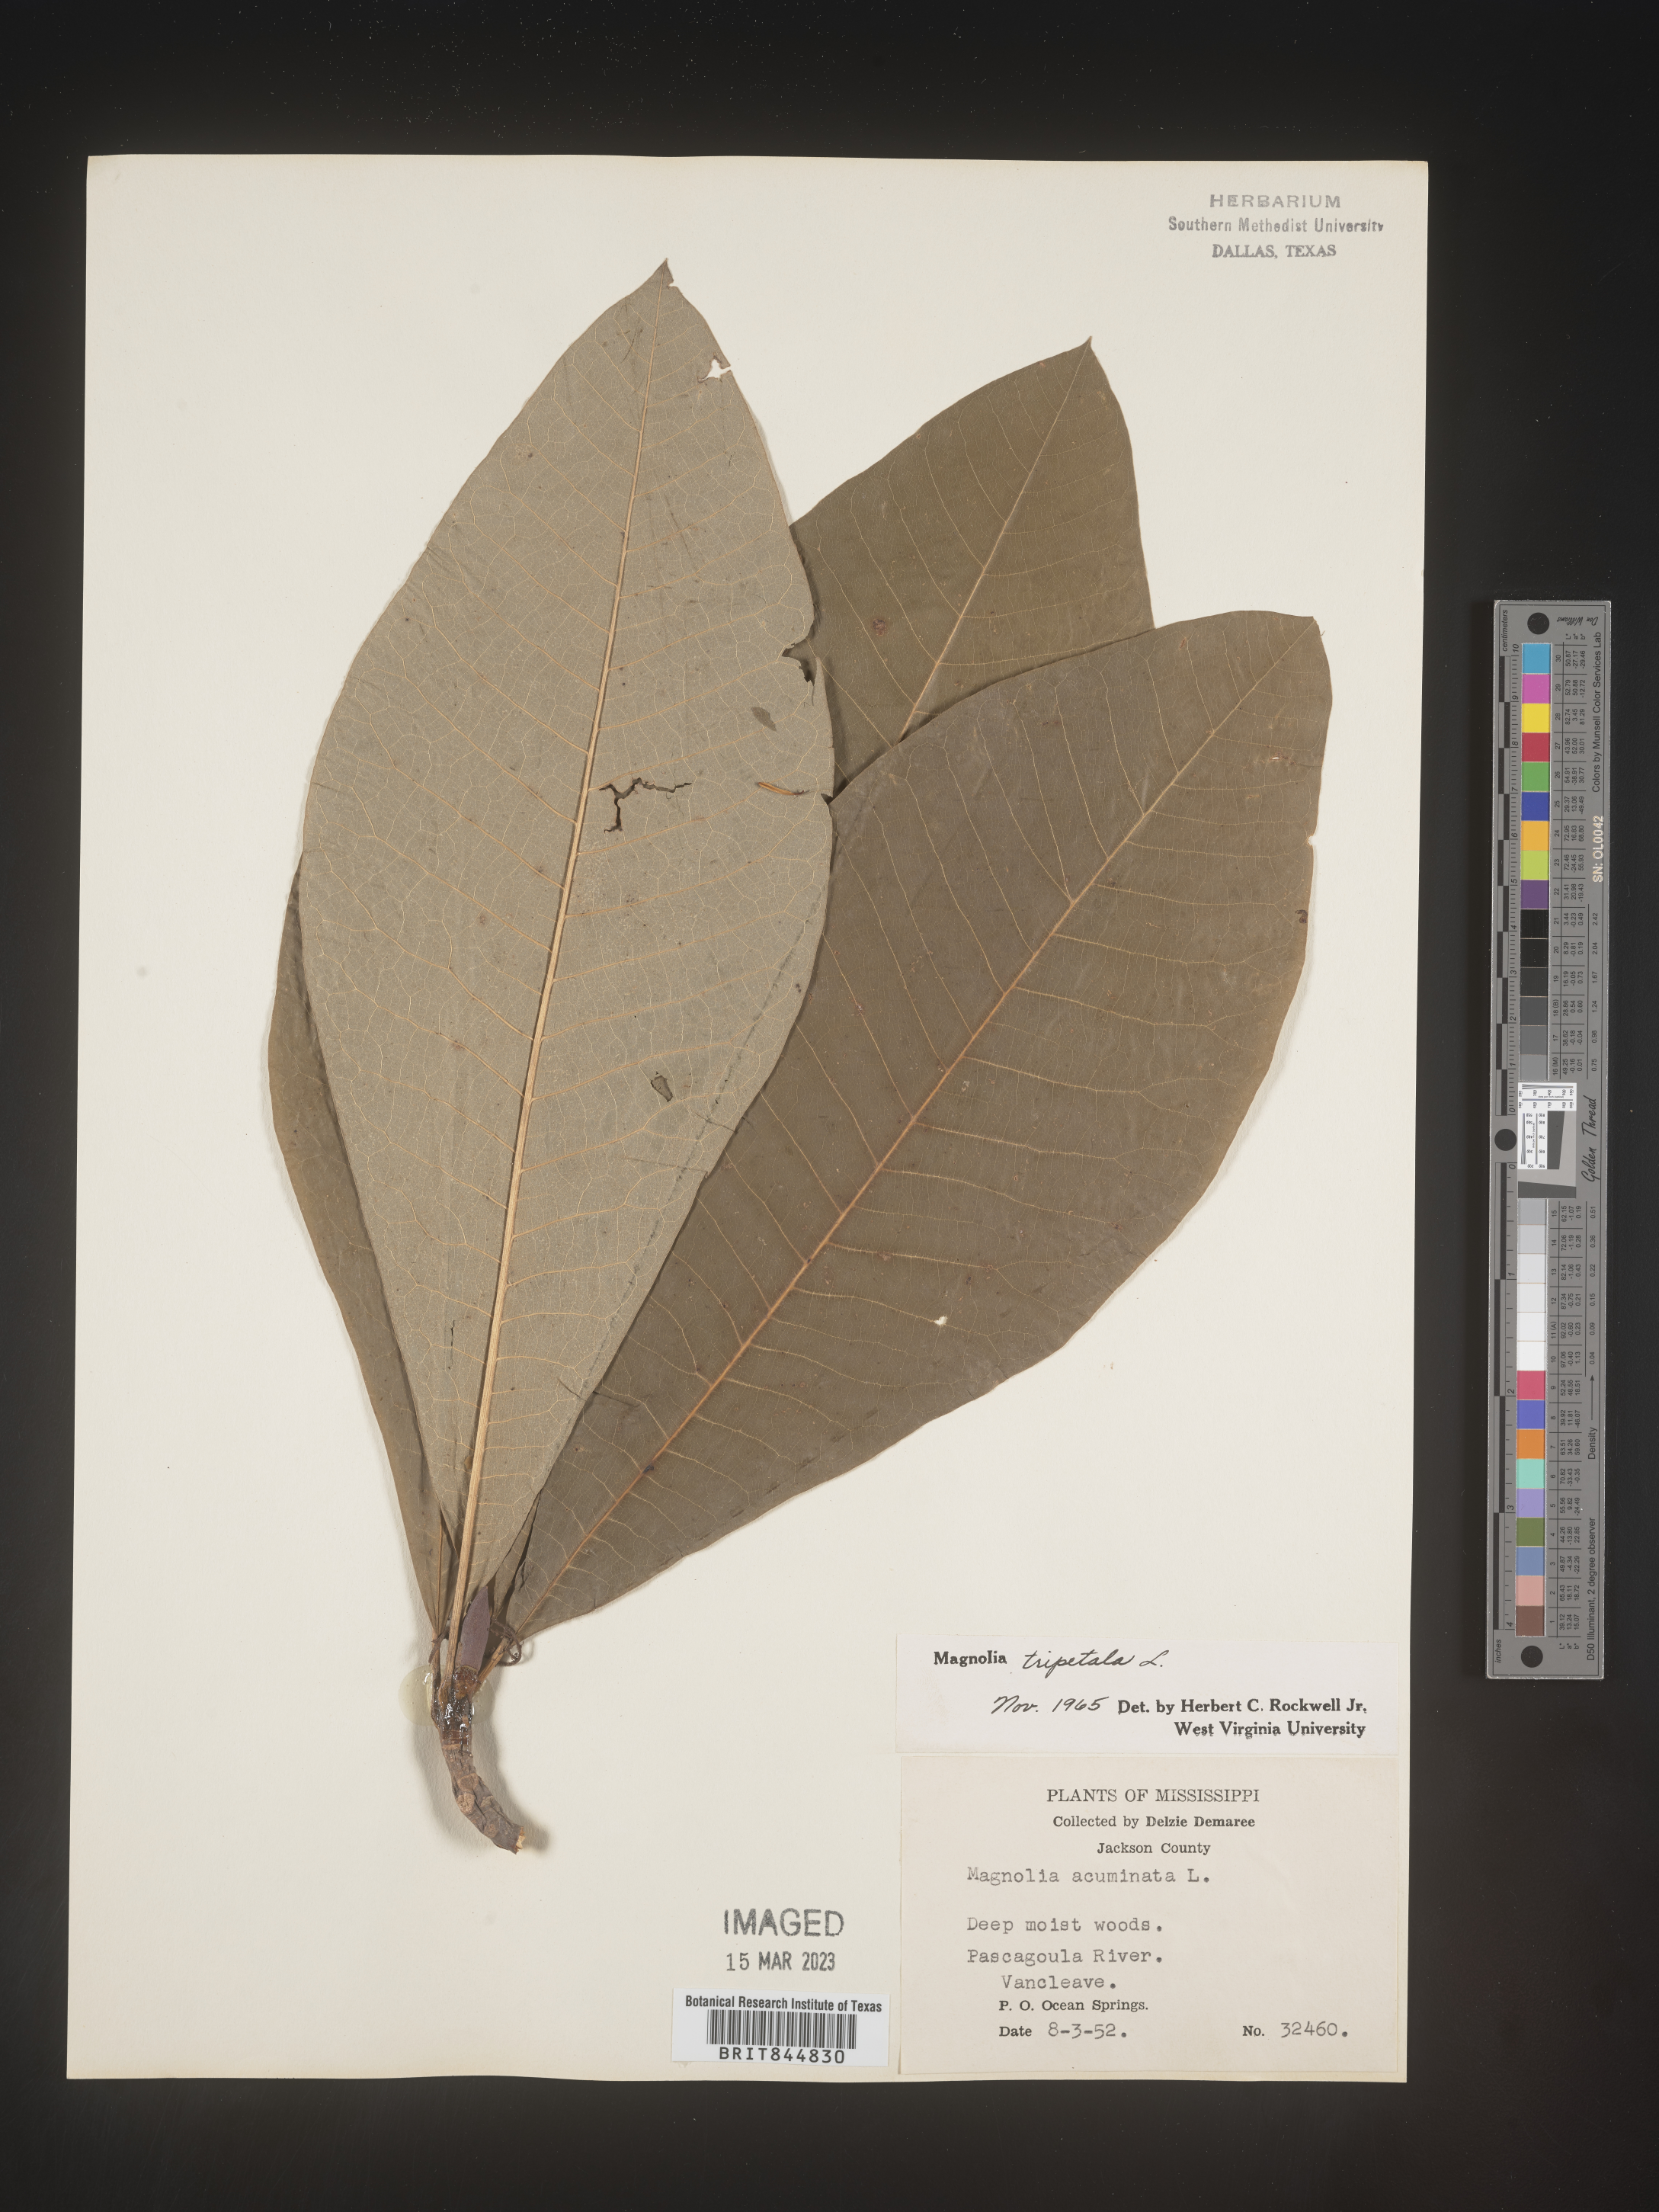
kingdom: Plantae
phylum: Tracheophyta
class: Magnoliopsida
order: Magnoliales
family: Magnoliaceae
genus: Magnolia
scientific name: Magnolia tripetala
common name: Umbrella magnolia
